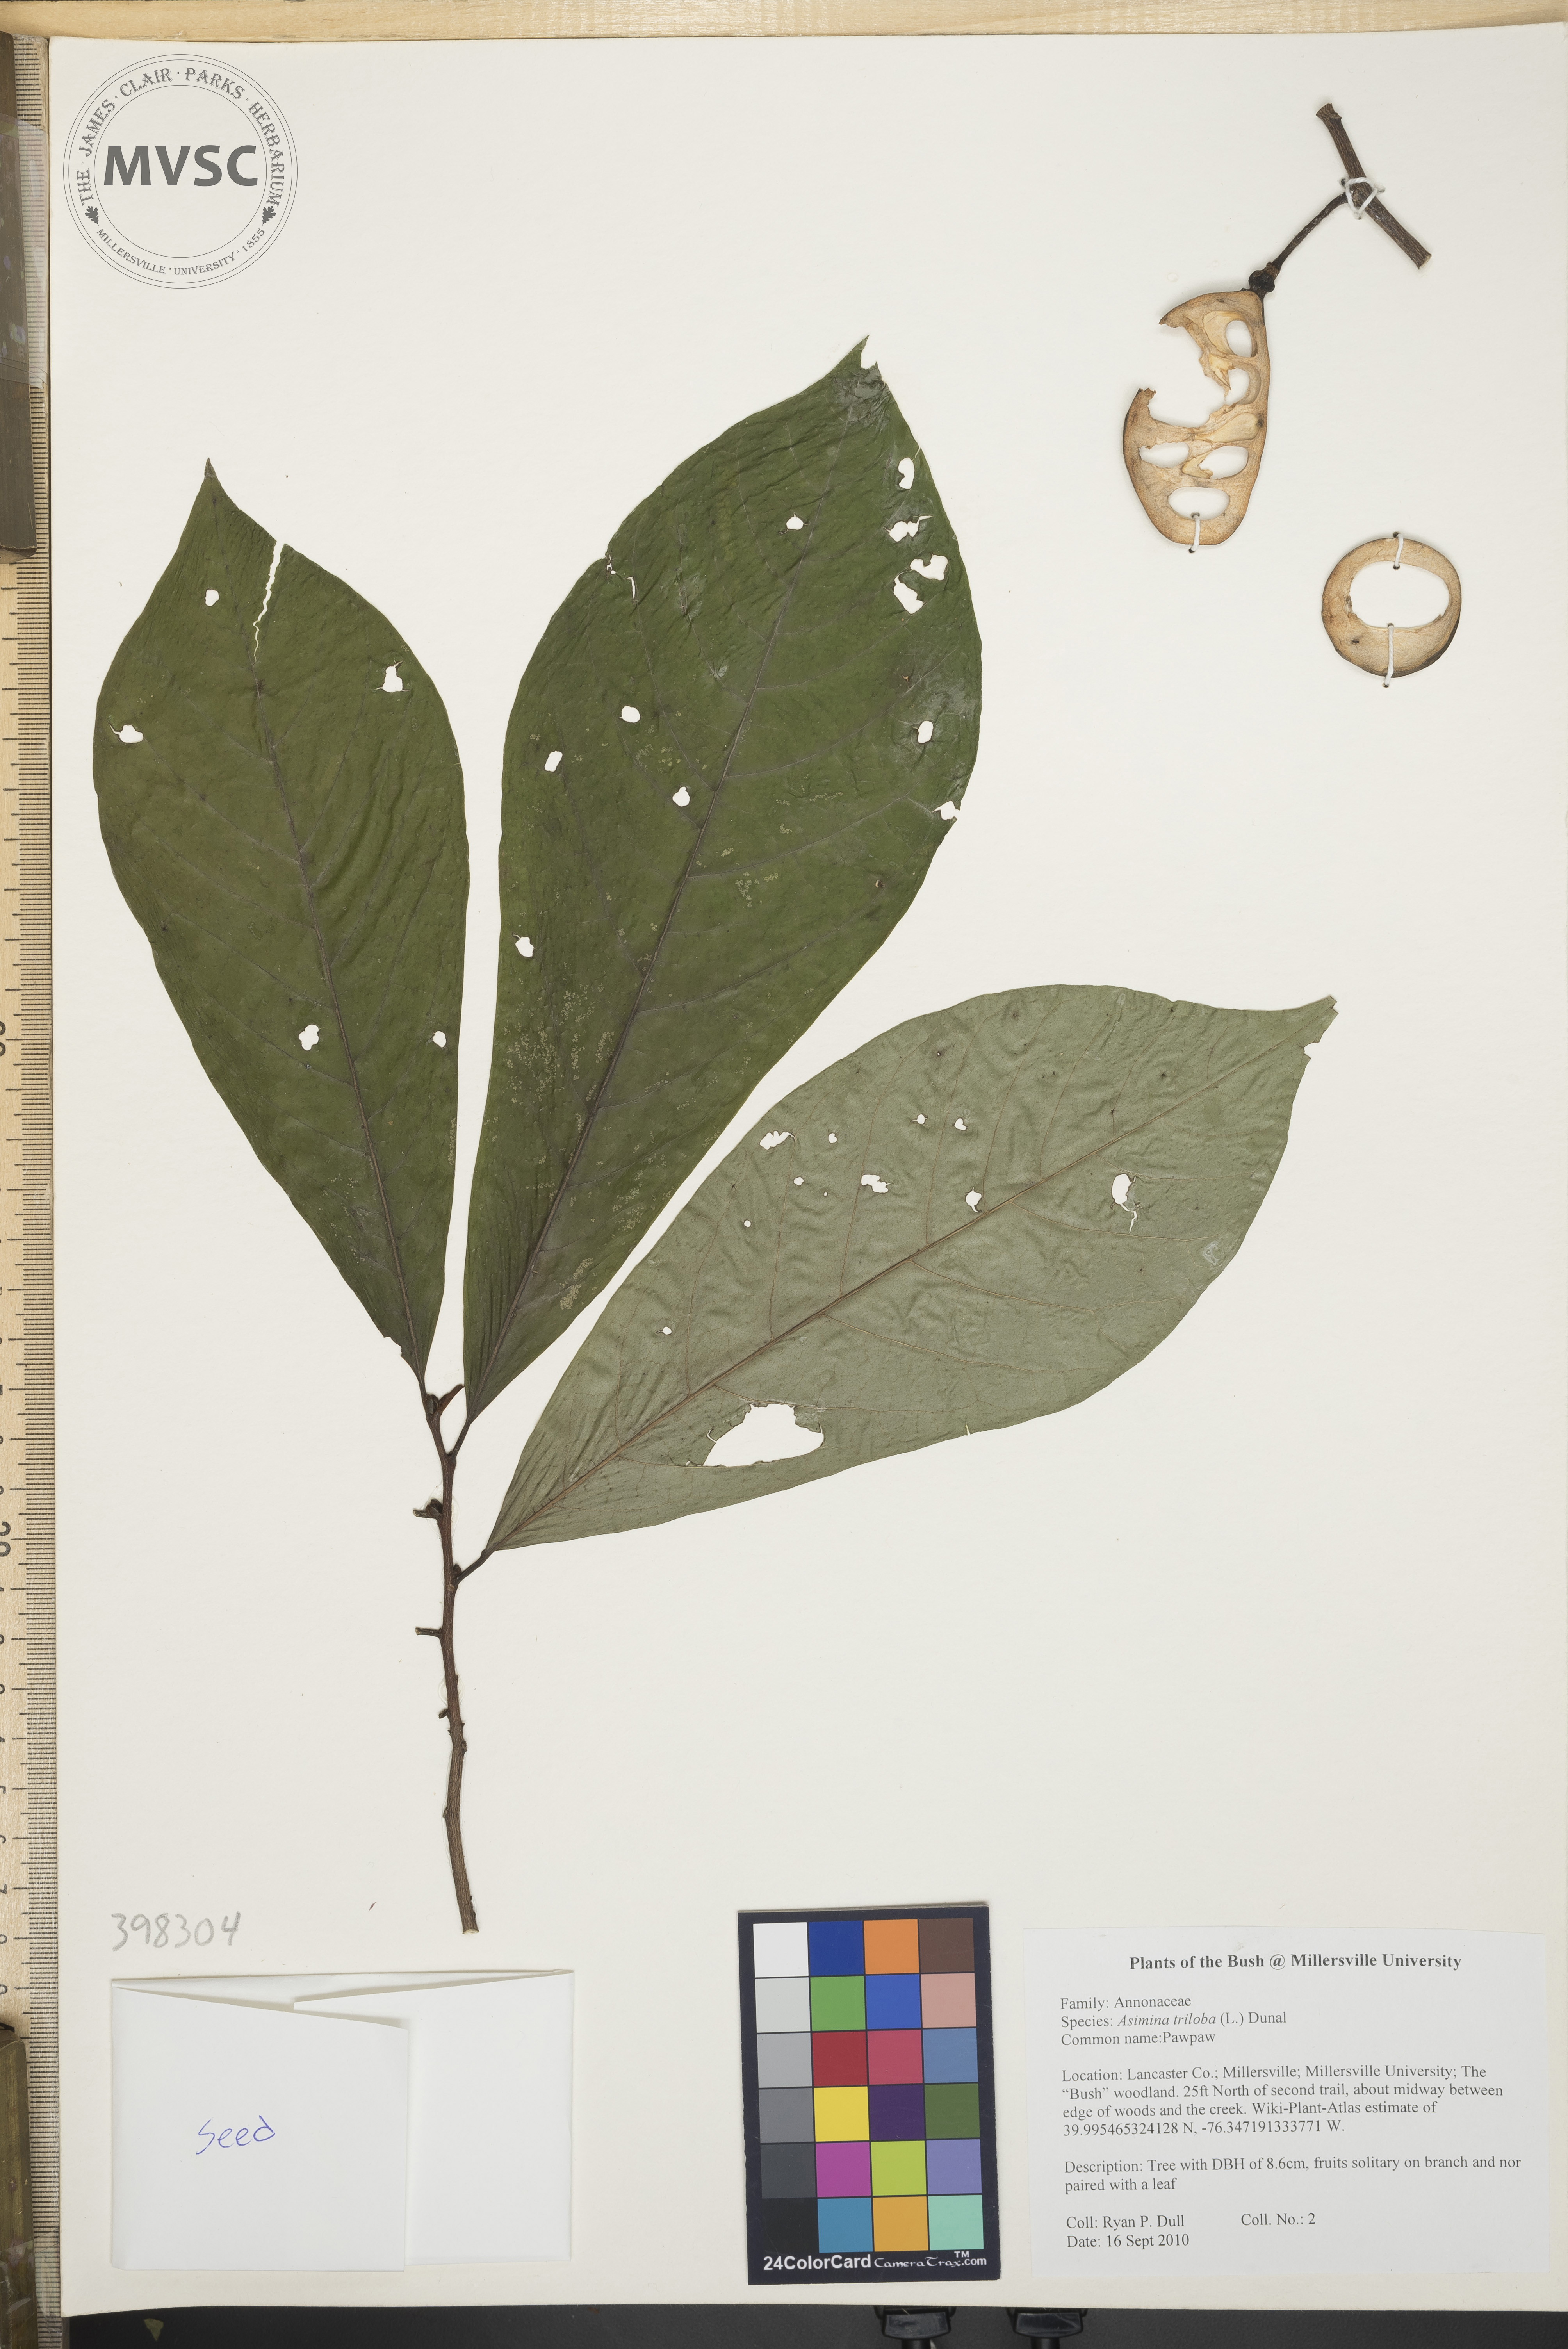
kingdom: Plantae
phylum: Tracheophyta
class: Magnoliopsida
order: Magnoliales
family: Annonaceae
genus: Asimina
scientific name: Asimina triloba
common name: Pawpaw
